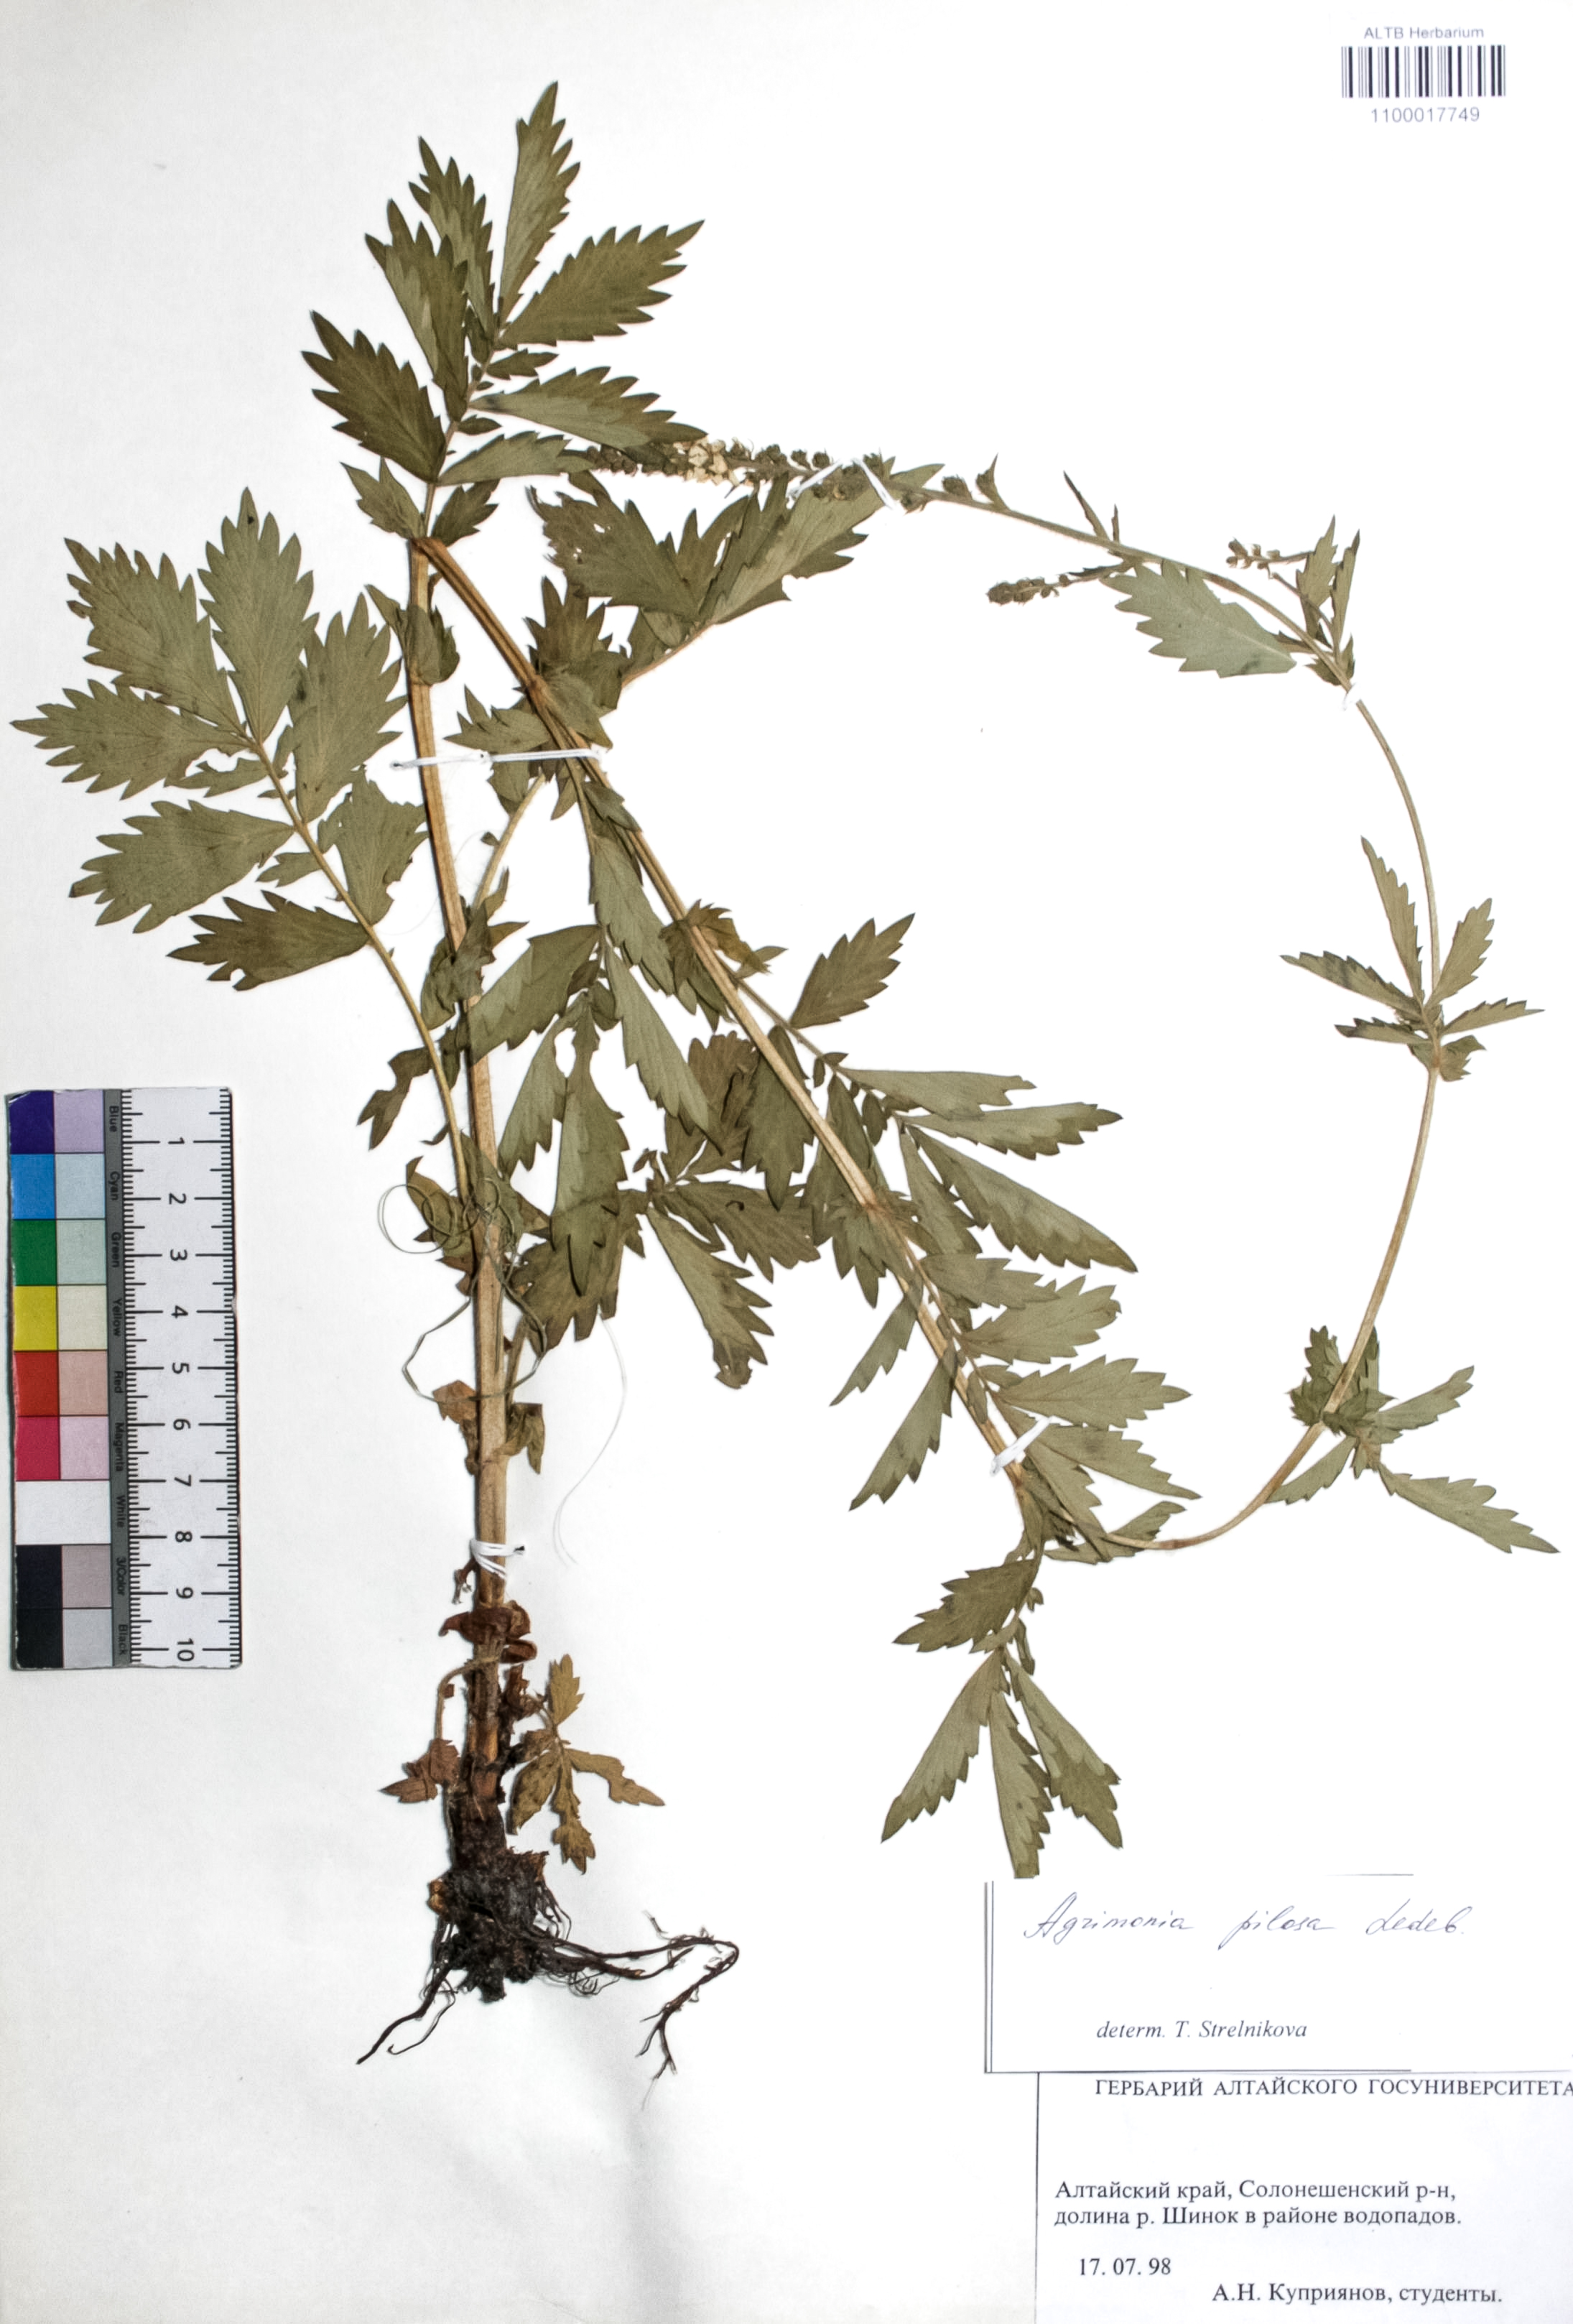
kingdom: Plantae
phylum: Tracheophyta
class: Magnoliopsida
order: Rosales
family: Rosaceae
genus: Agrimonia
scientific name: Agrimonia pilosa
